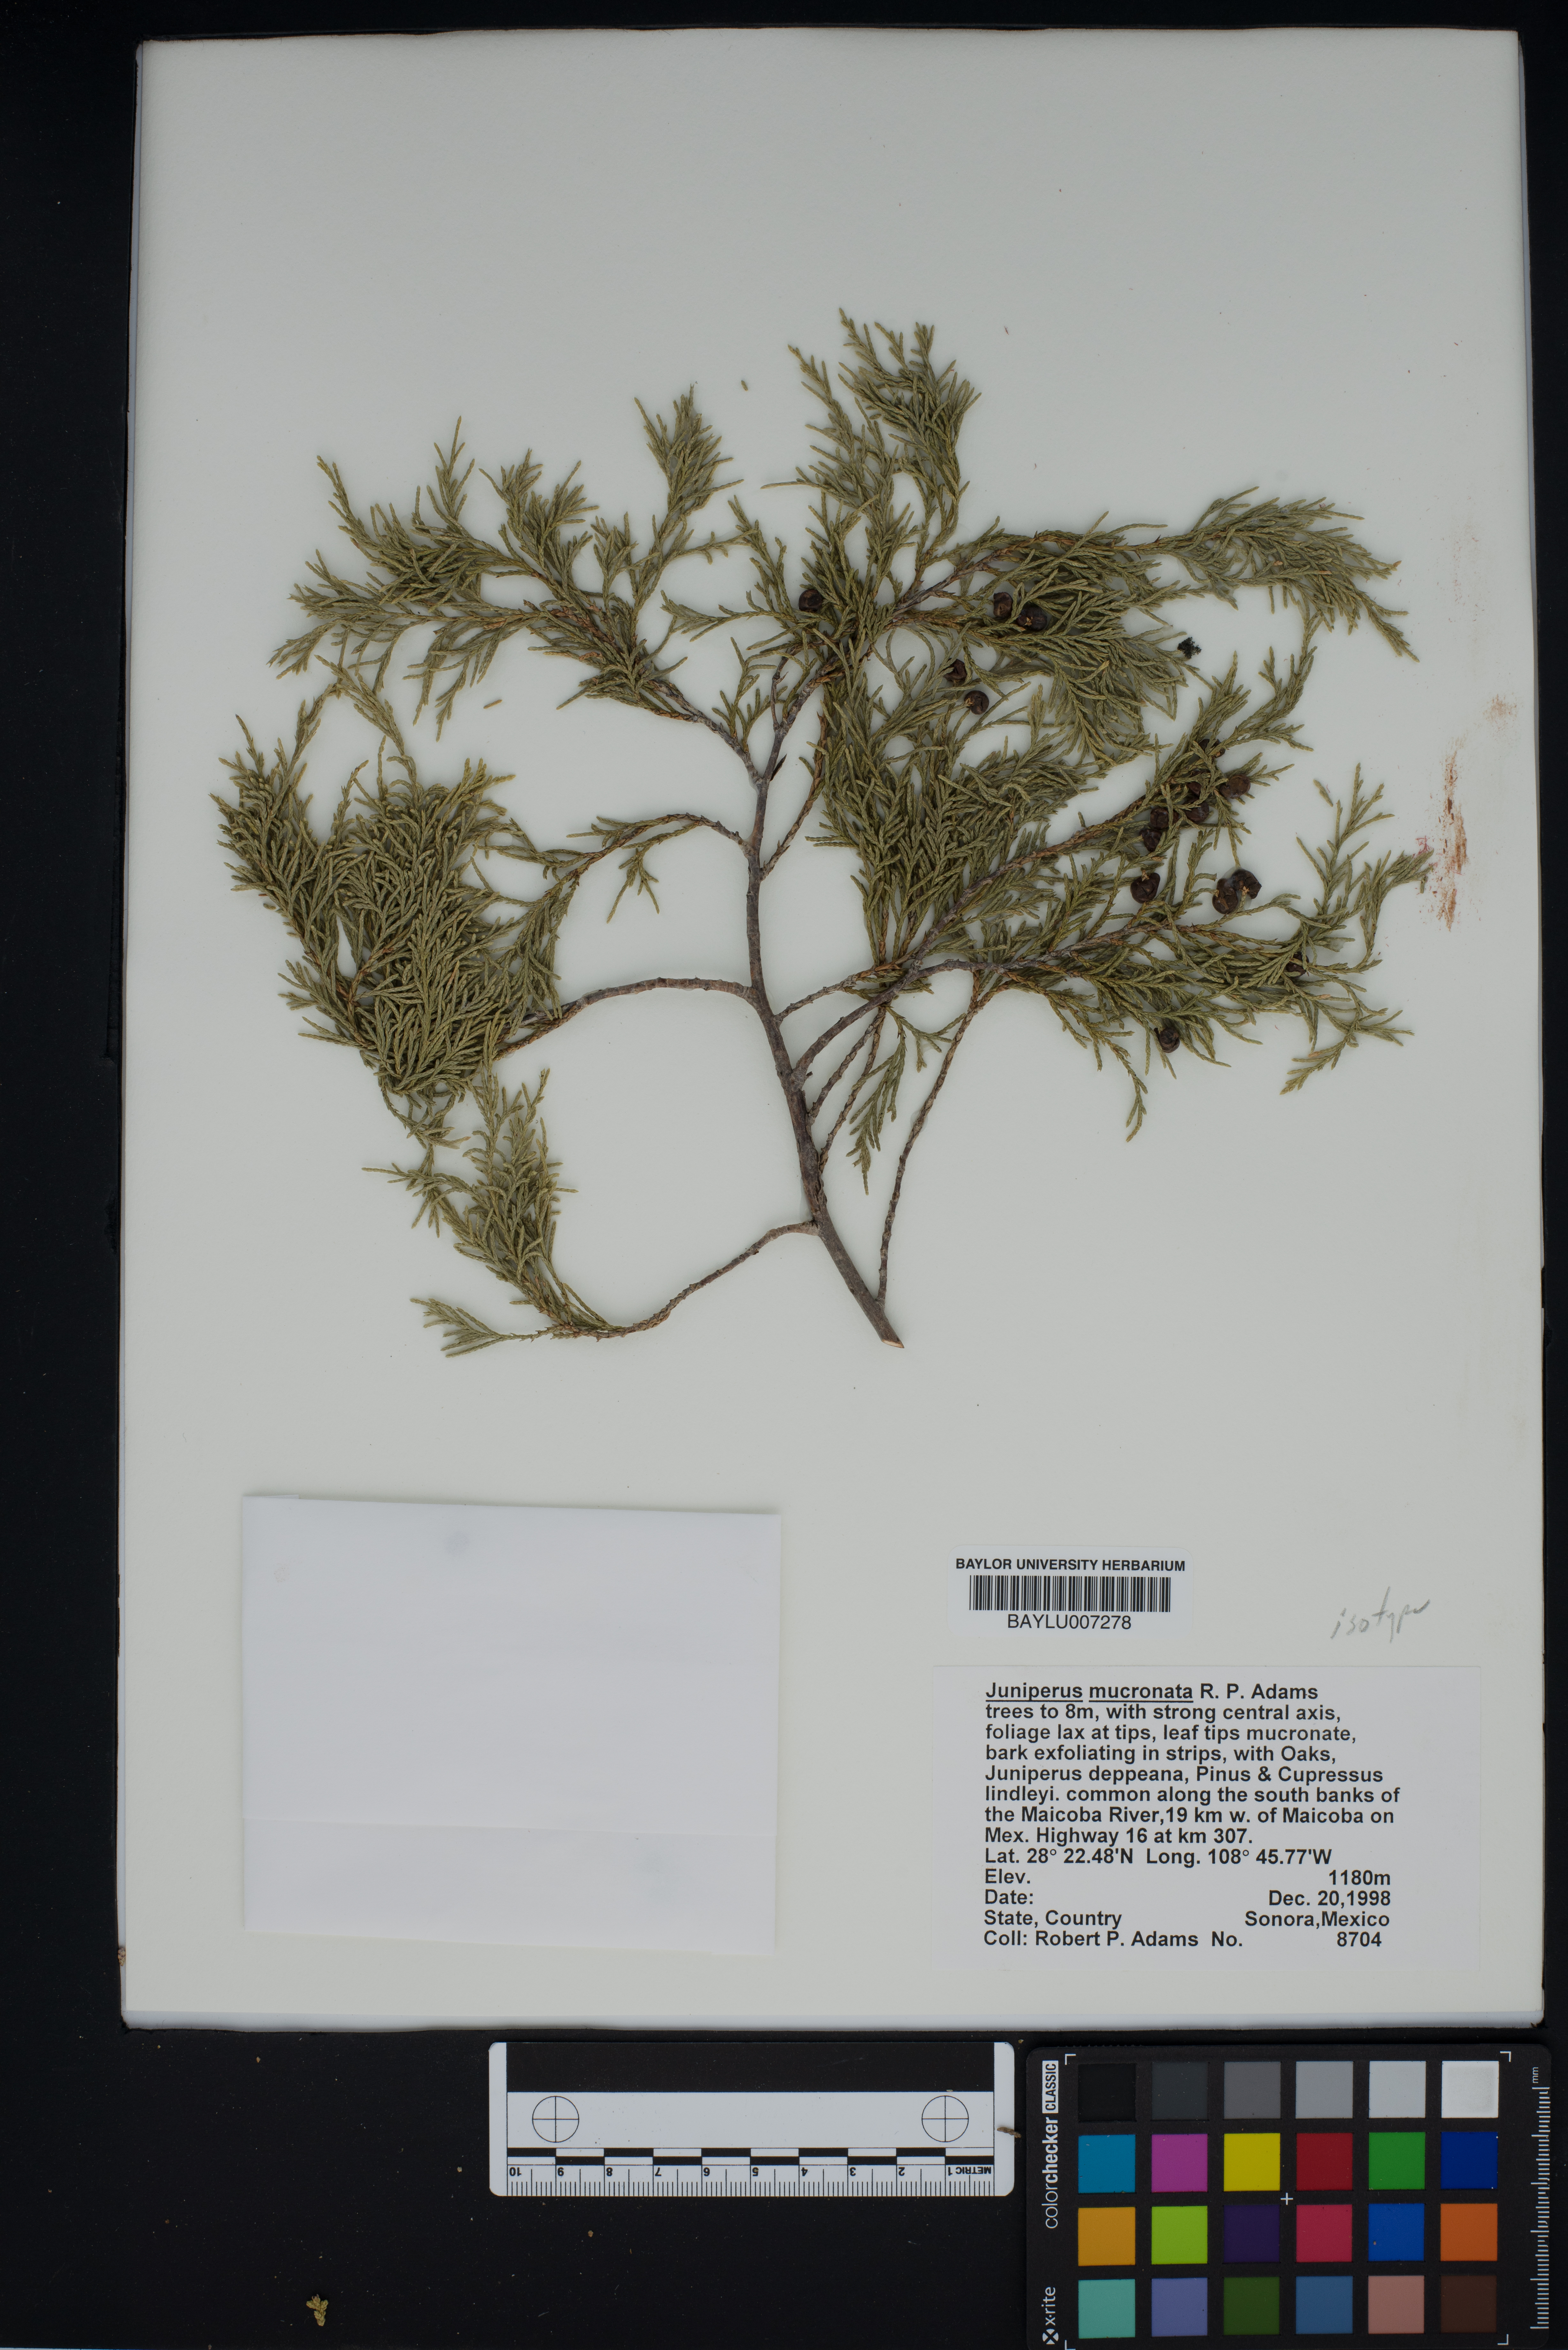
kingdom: Plantae
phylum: Tracheophyta
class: Pinopsida
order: Pinales
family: Cupressaceae
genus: Juniperus
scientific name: Juniperus blancoi
